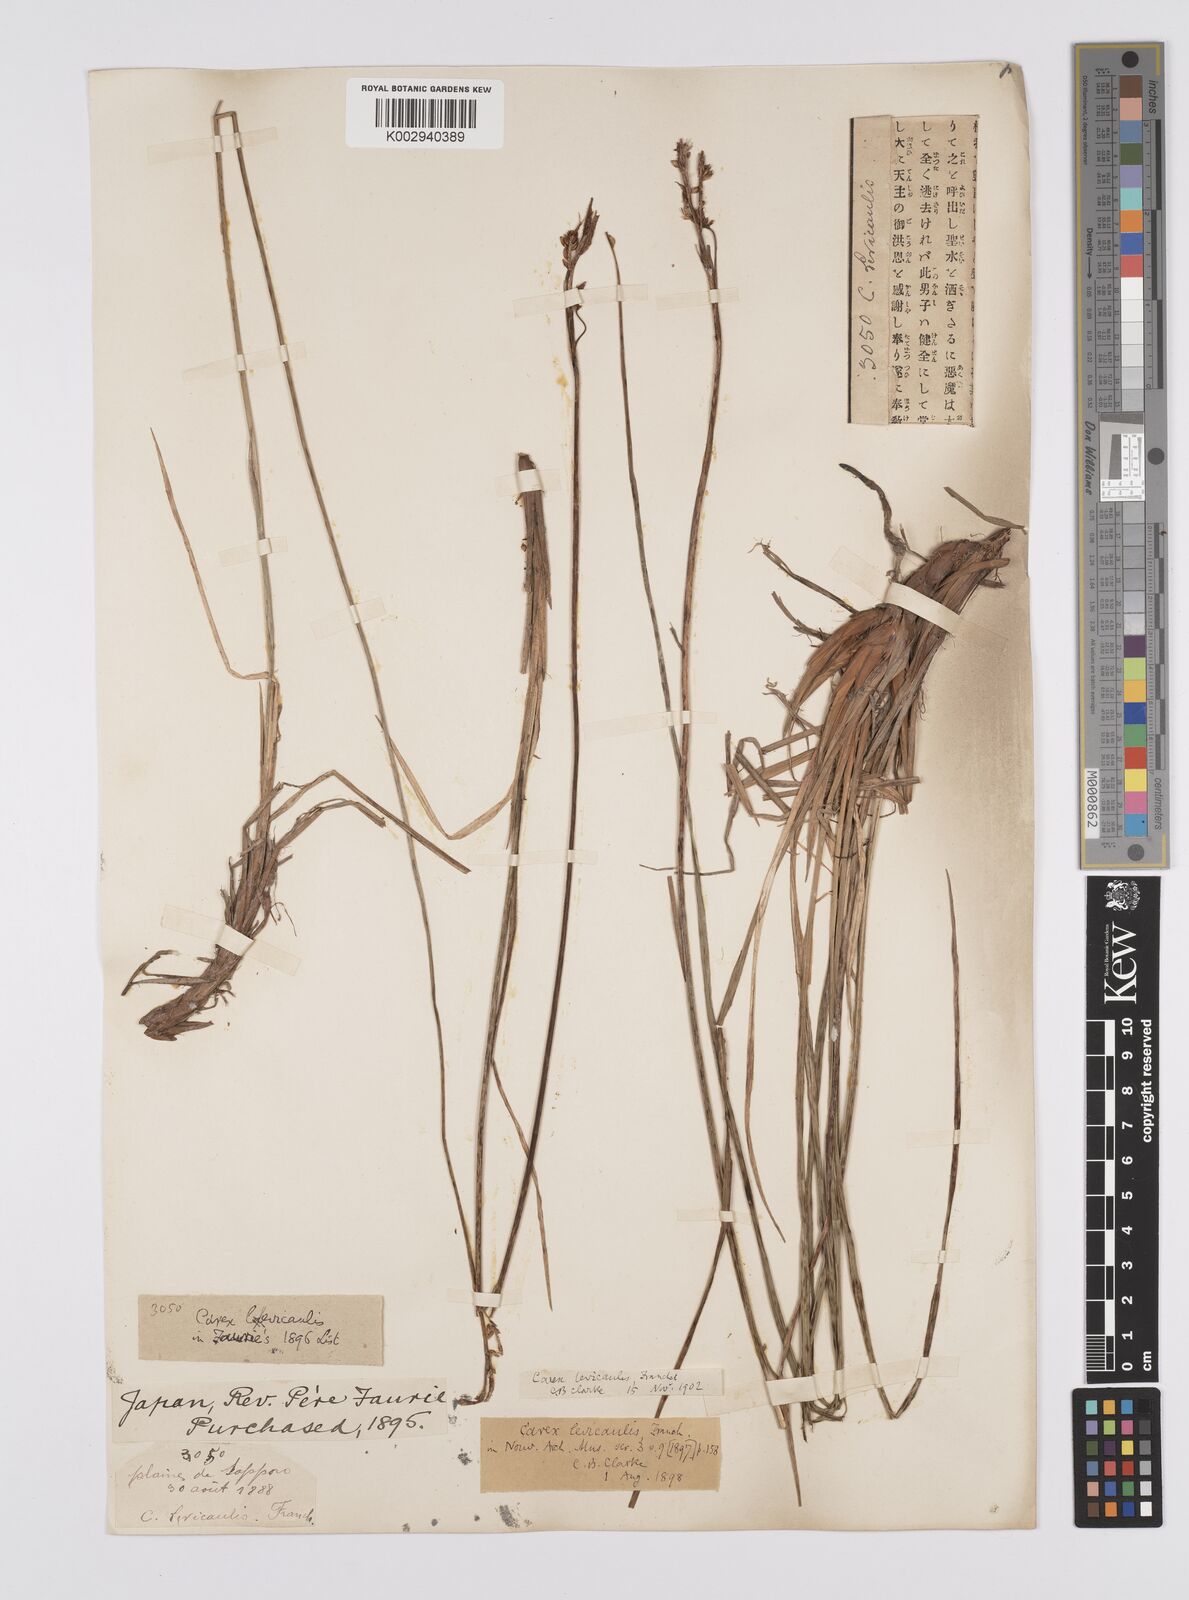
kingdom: Plantae
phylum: Tracheophyta
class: Liliopsida
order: Poales
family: Cyperaceae
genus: Carex
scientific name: Carex middendorffii
